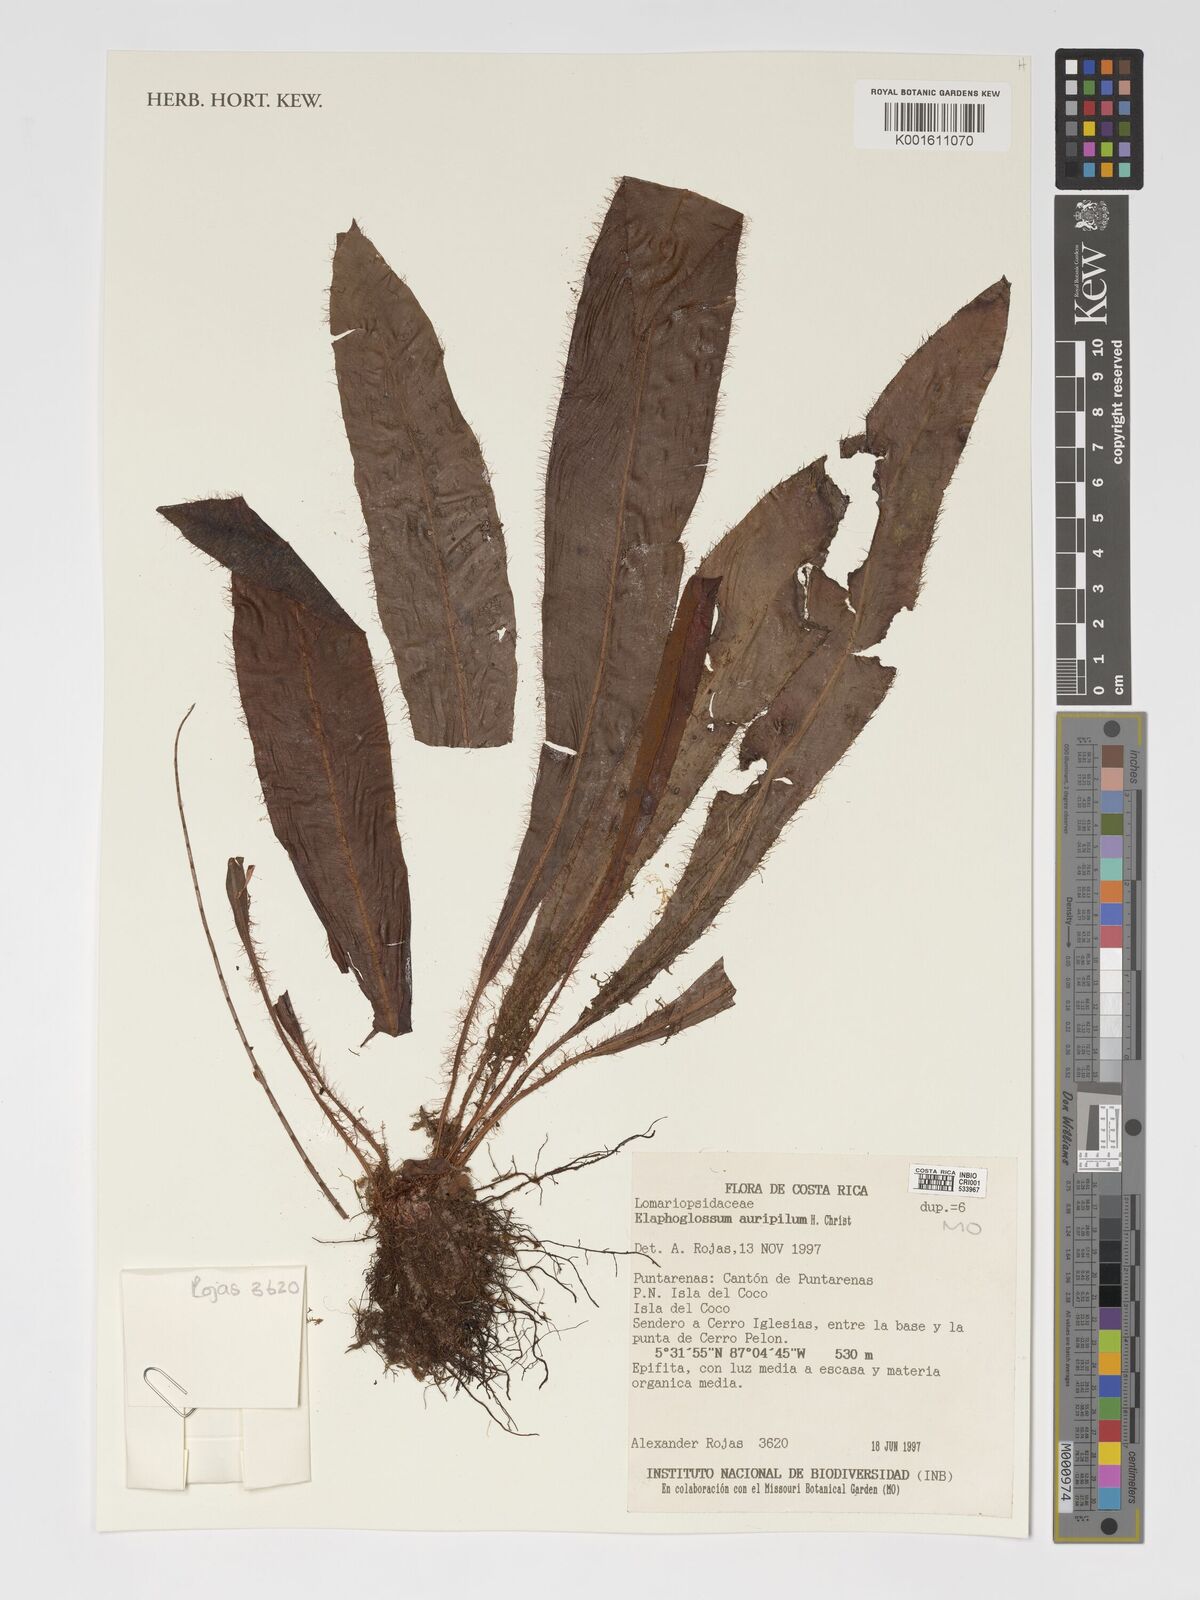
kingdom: Plantae
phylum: Tracheophyta
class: Polypodiopsida
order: Polypodiales
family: Dryopteridaceae
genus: Elaphoglossum
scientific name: Elaphoglossum auripilum
